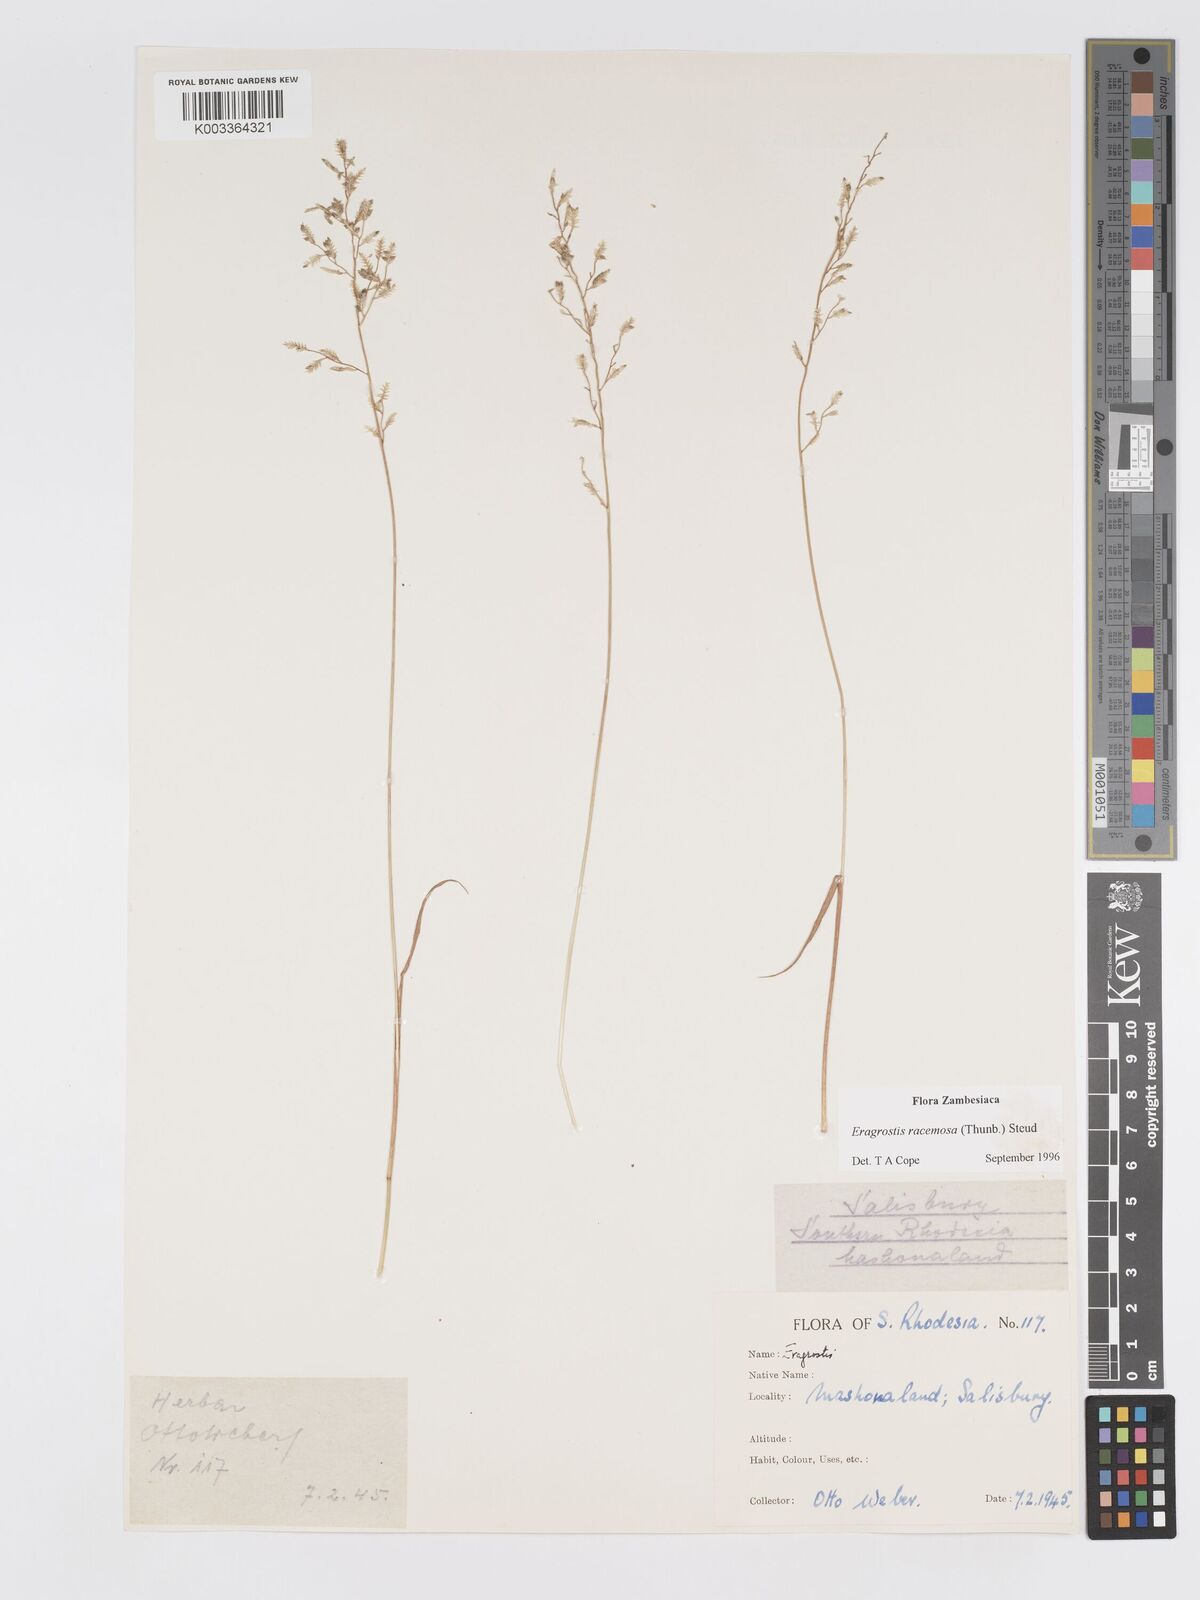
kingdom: Plantae
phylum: Tracheophyta
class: Liliopsida
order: Poales
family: Poaceae
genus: Eragrostis
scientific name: Eragrostis racemosa
